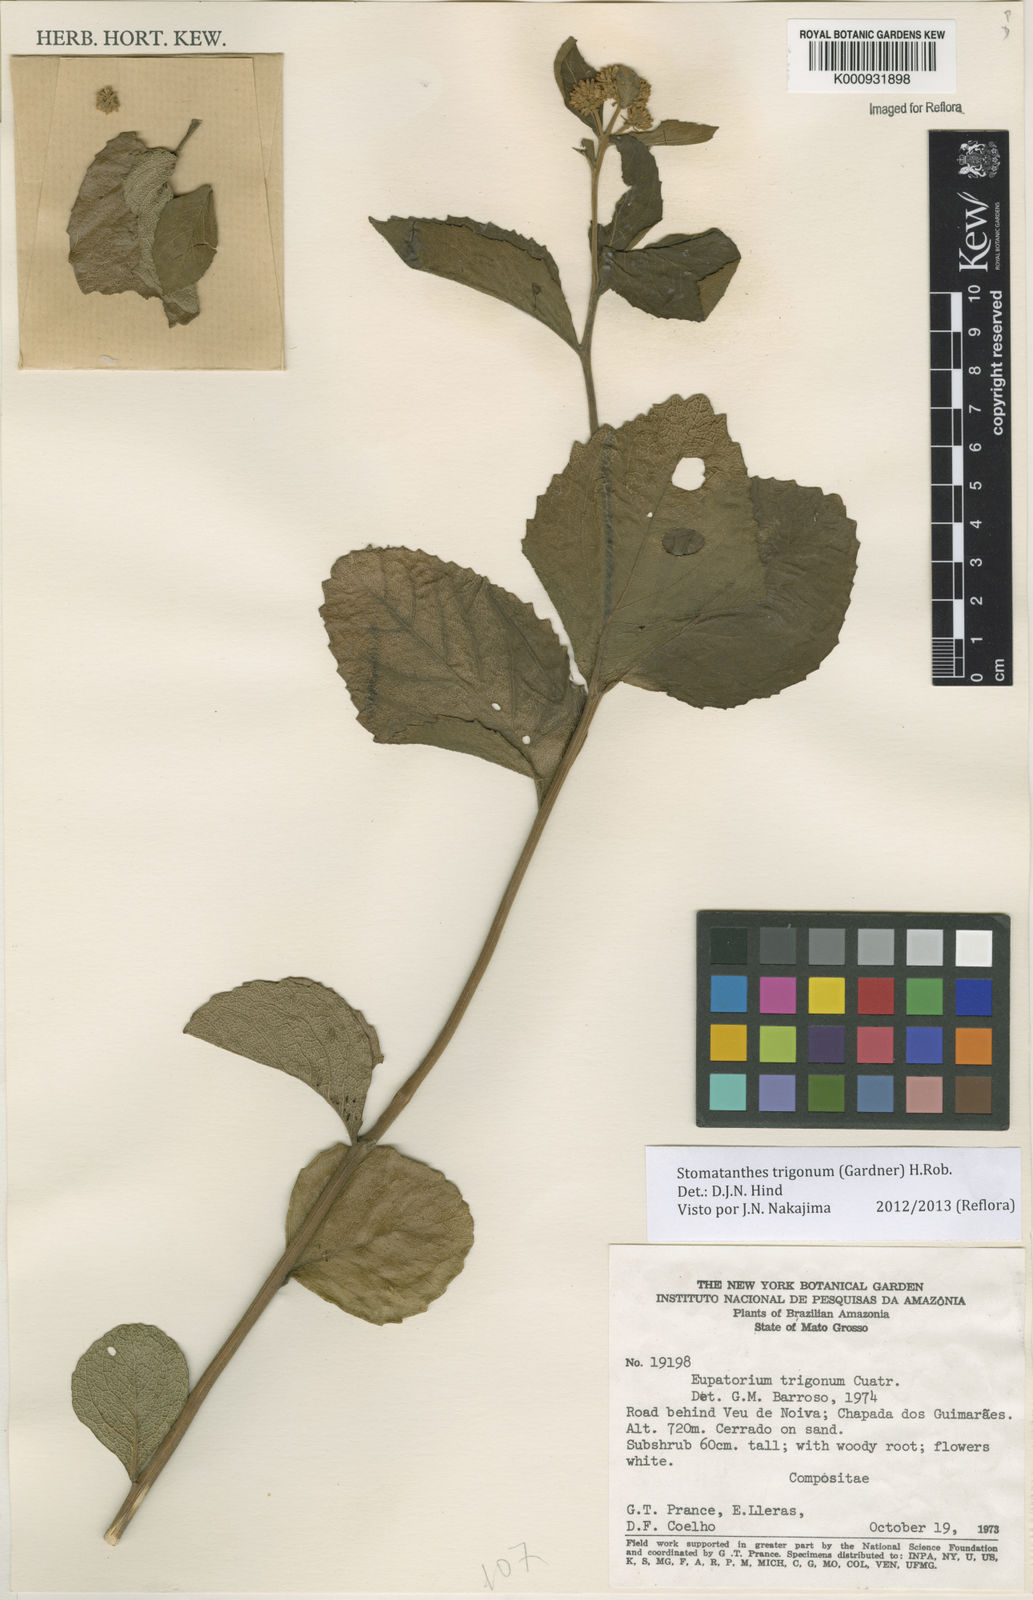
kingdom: Plantae
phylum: Tracheophyta
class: Magnoliopsida
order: Asterales
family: Asteraceae
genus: Stomatanthes
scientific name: Stomatanthes trigonus
